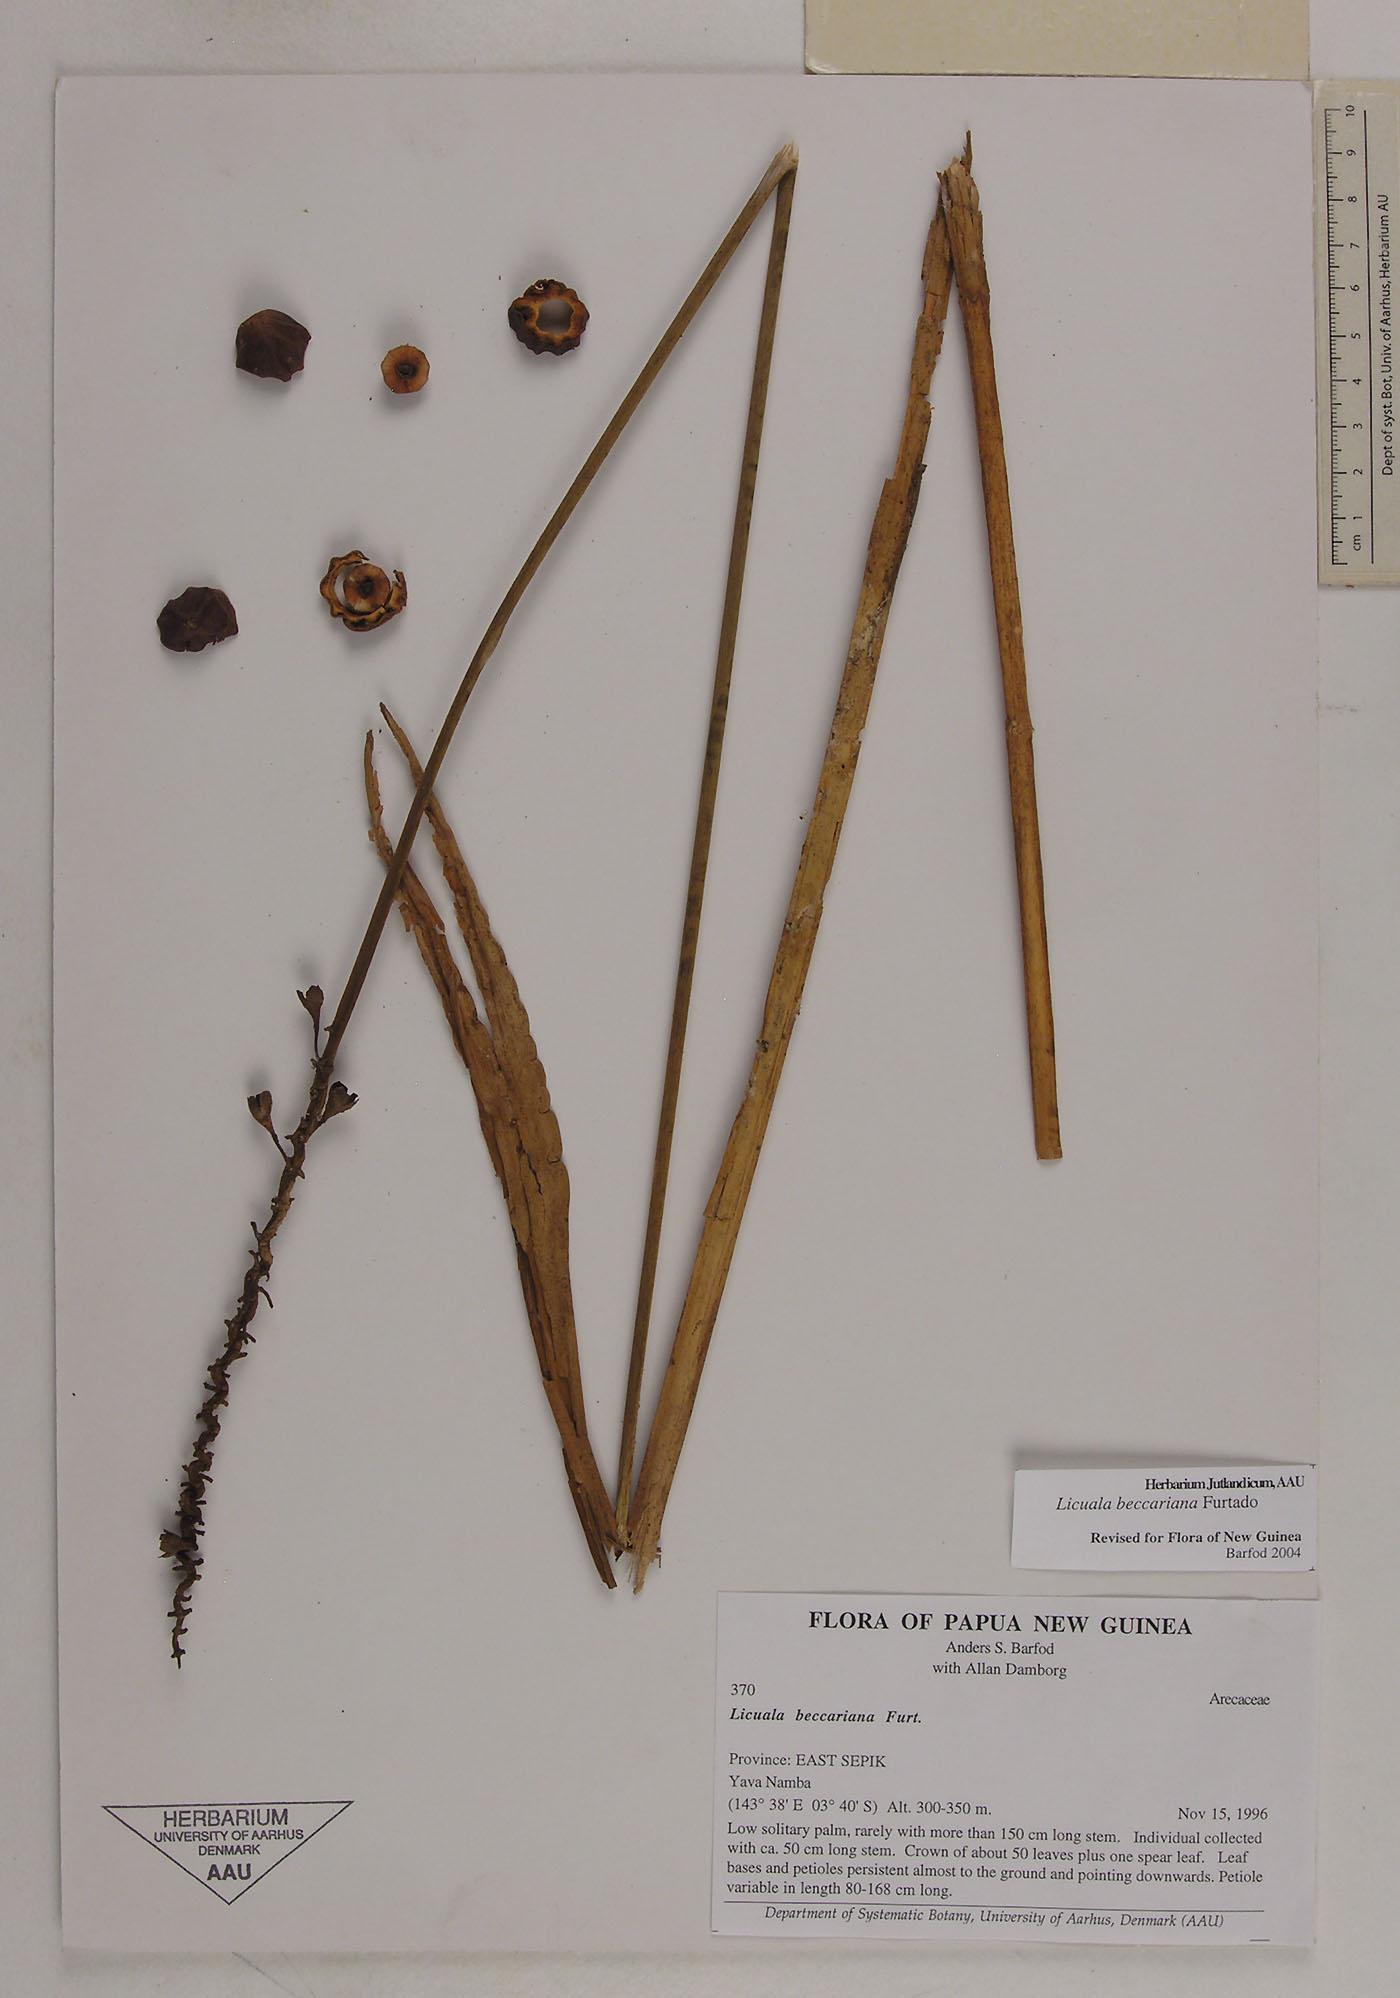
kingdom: Plantae
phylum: Tracheophyta
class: Liliopsida
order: Arecales
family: Arecaceae
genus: Licuala
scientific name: Licuala beccariana
